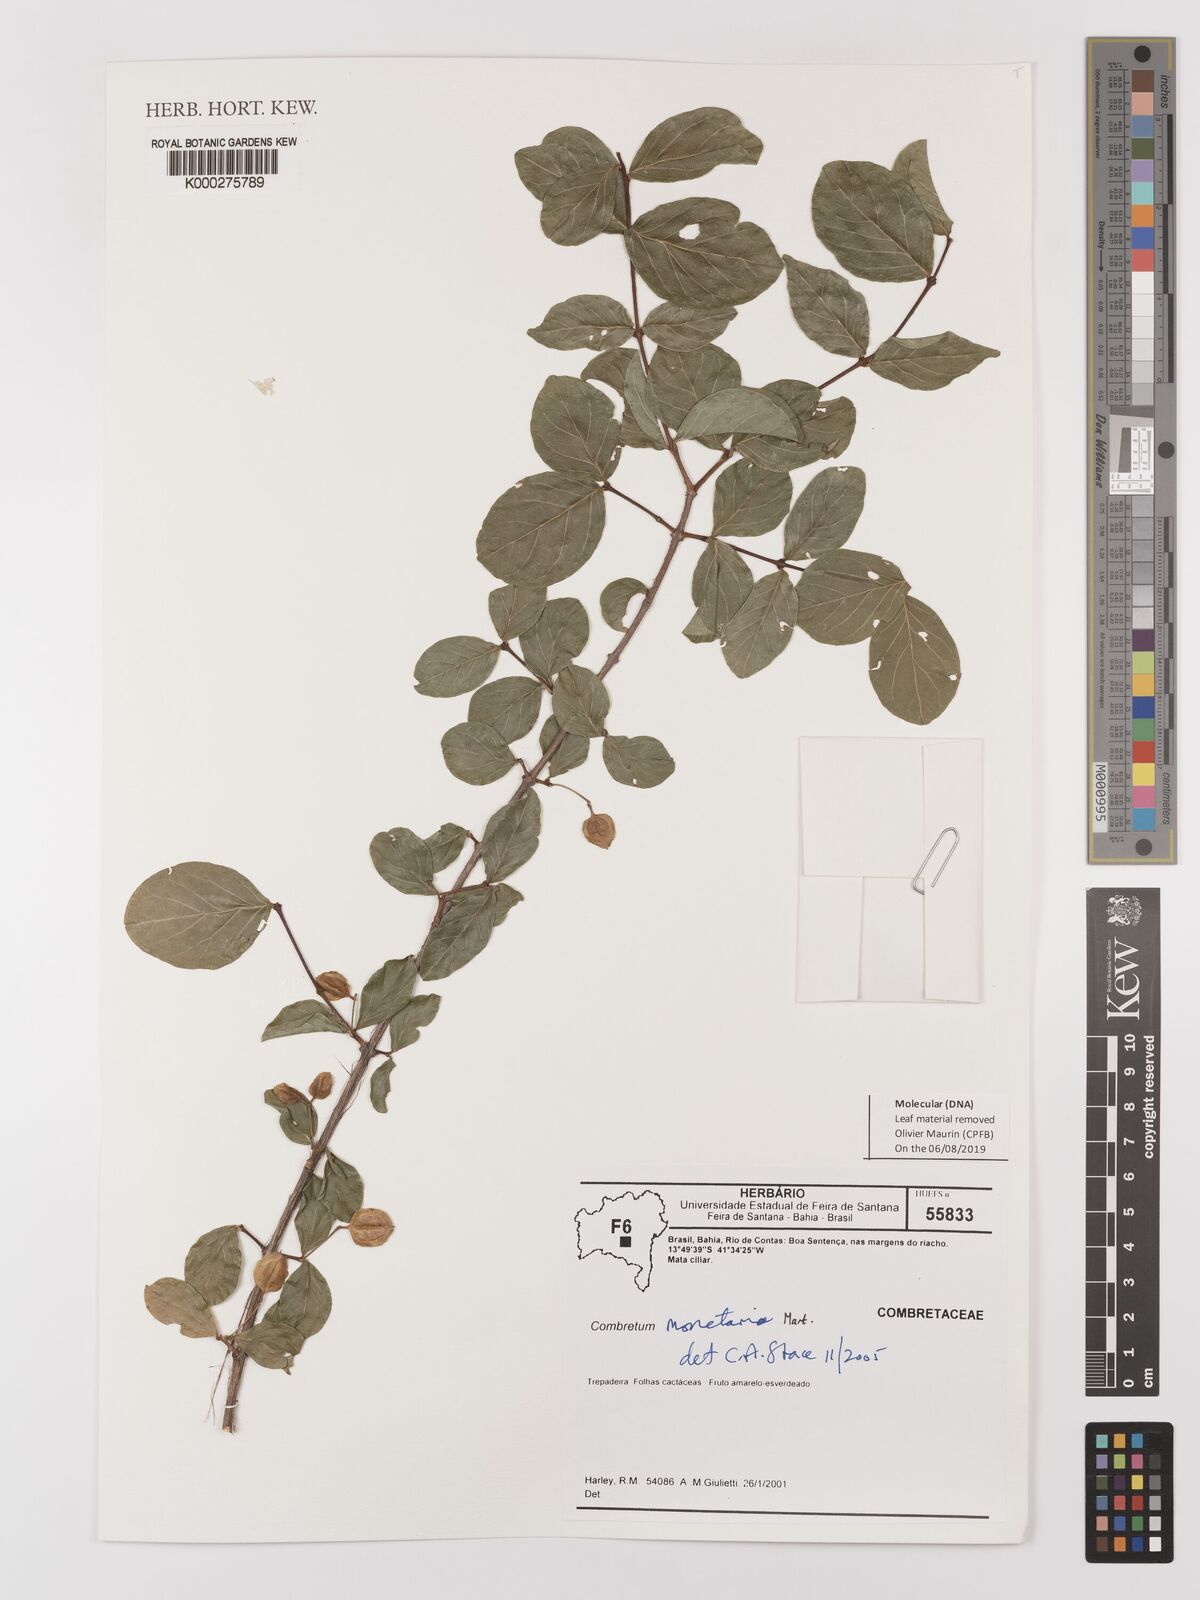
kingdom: Plantae
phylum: Tracheophyta
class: Magnoliopsida
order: Myrtales
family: Combretaceae
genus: Combretum
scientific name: Combretum monetaria
